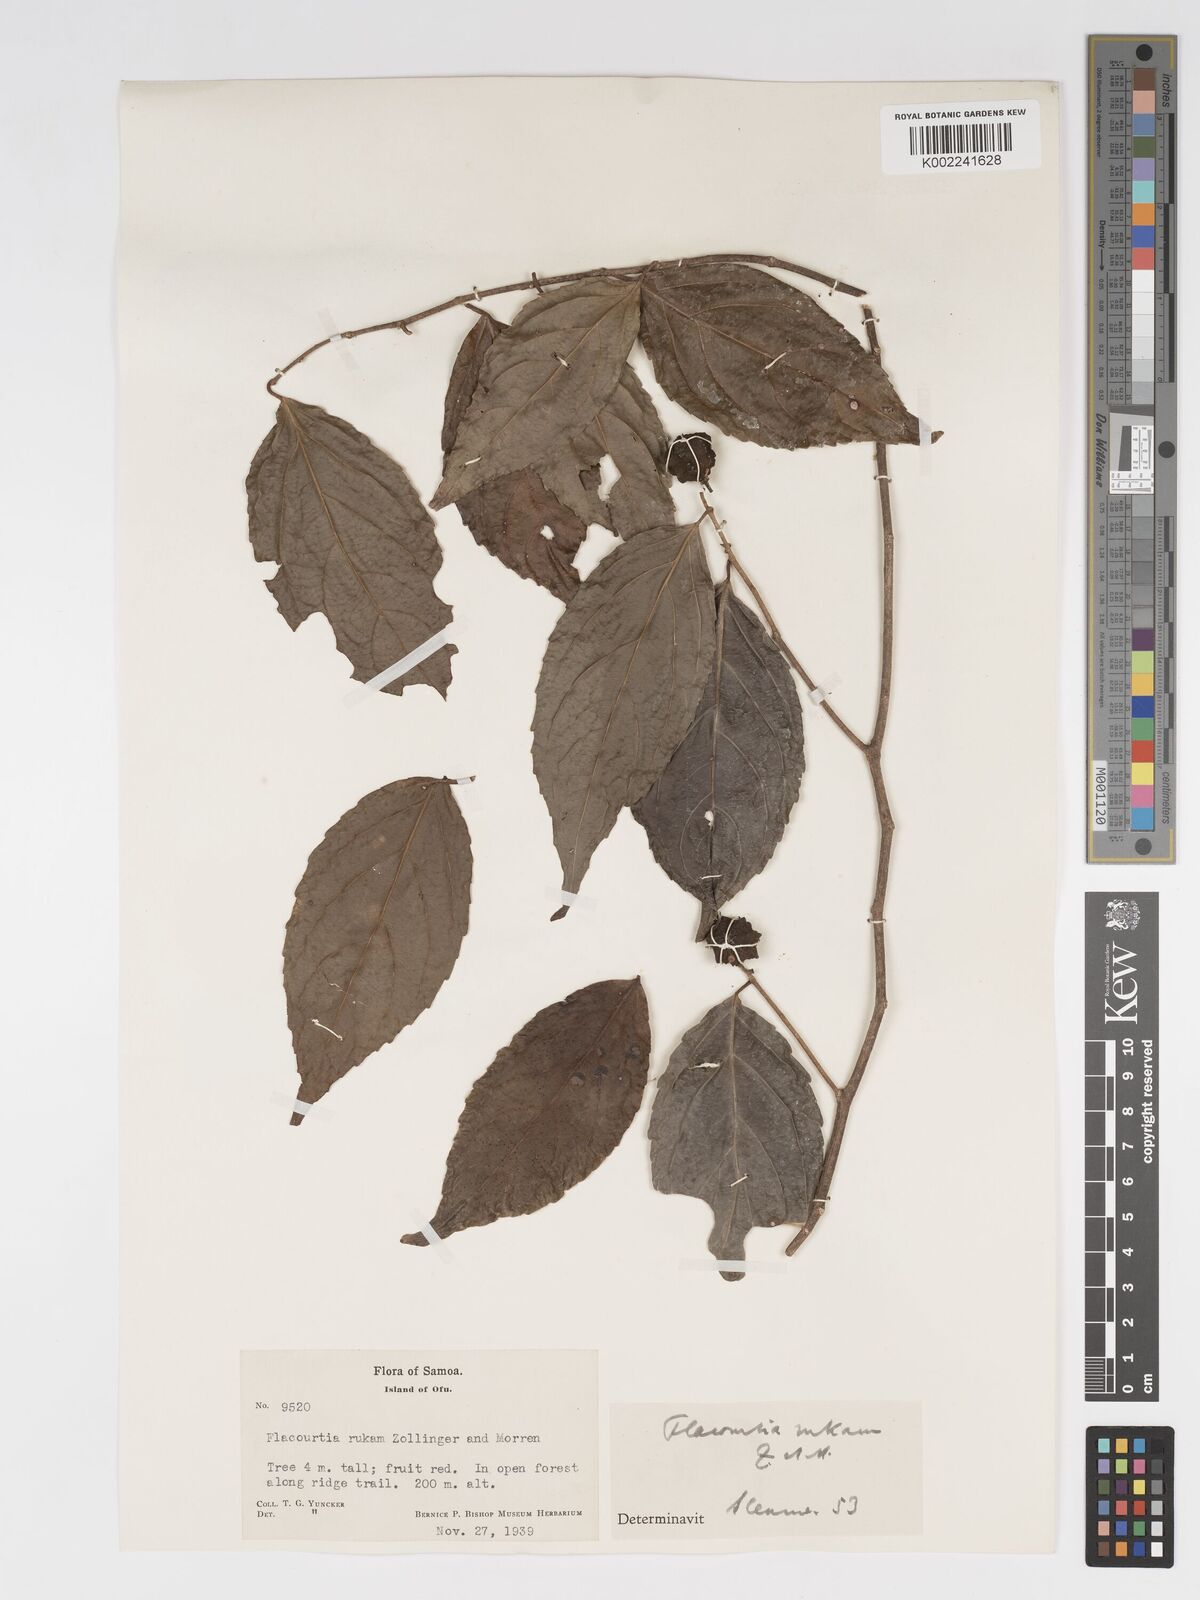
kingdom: Plantae
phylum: Tracheophyta
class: Magnoliopsida
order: Malpighiales
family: Salicaceae
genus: Flacourtia
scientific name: Flacourtia rukam
